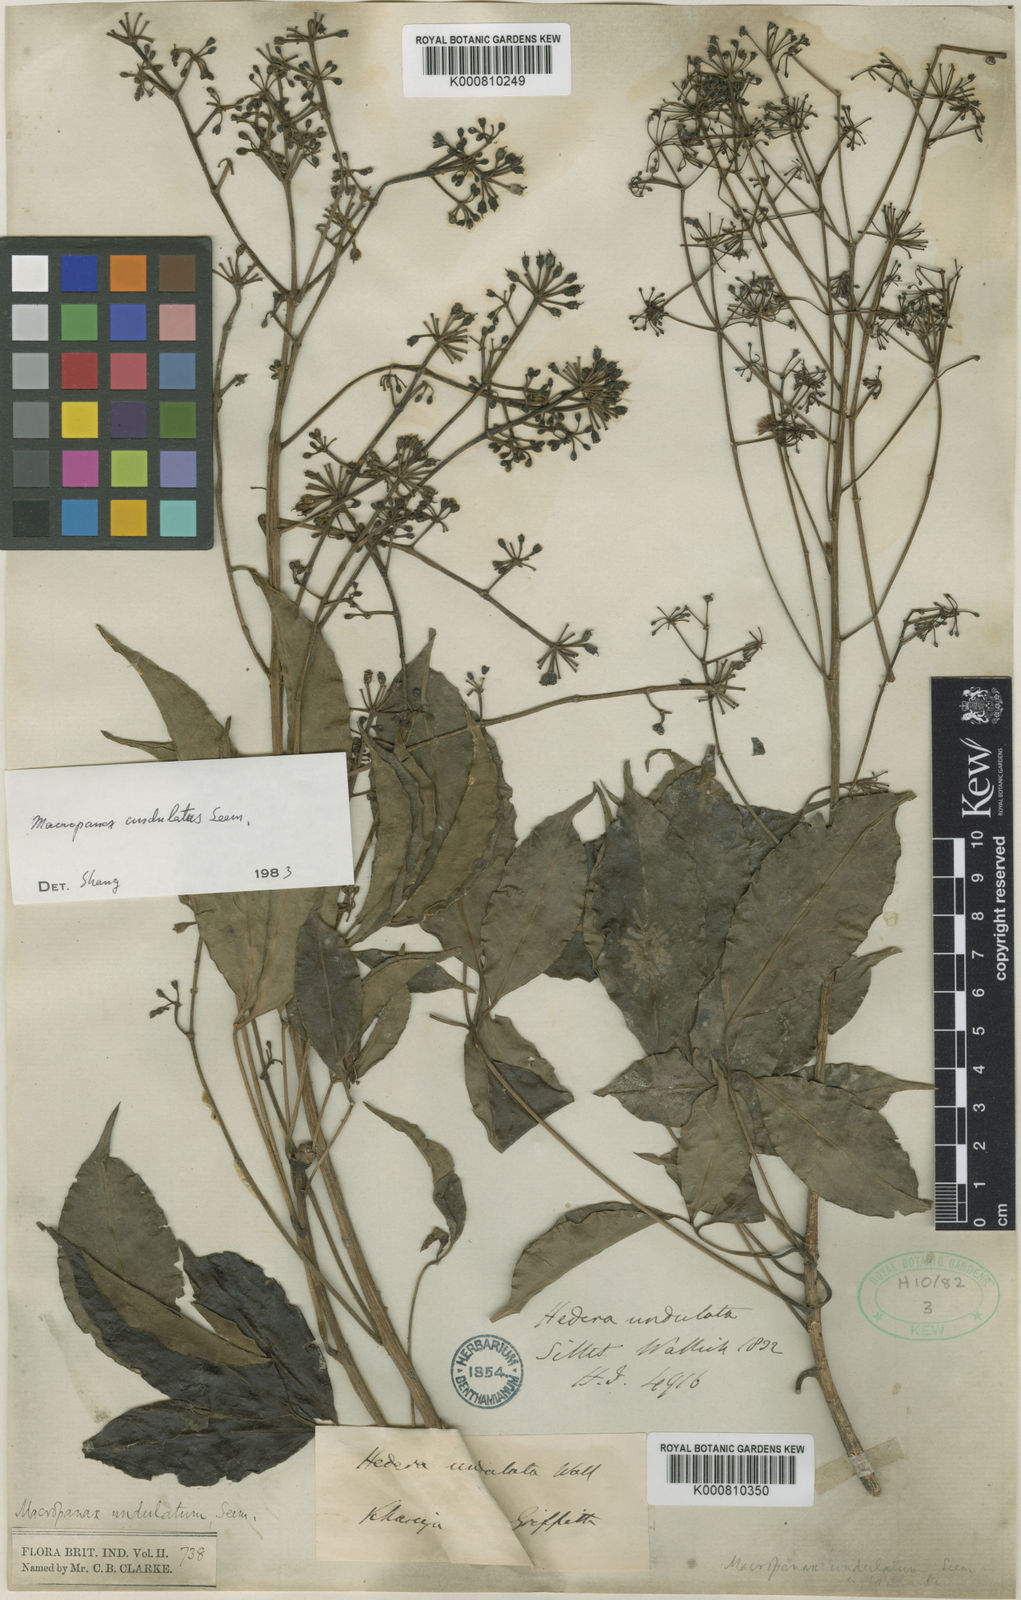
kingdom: Plantae
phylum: Tracheophyta
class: Magnoliopsida
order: Apiales
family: Araliaceae
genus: Macropanax
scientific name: Macropanax undulatus
